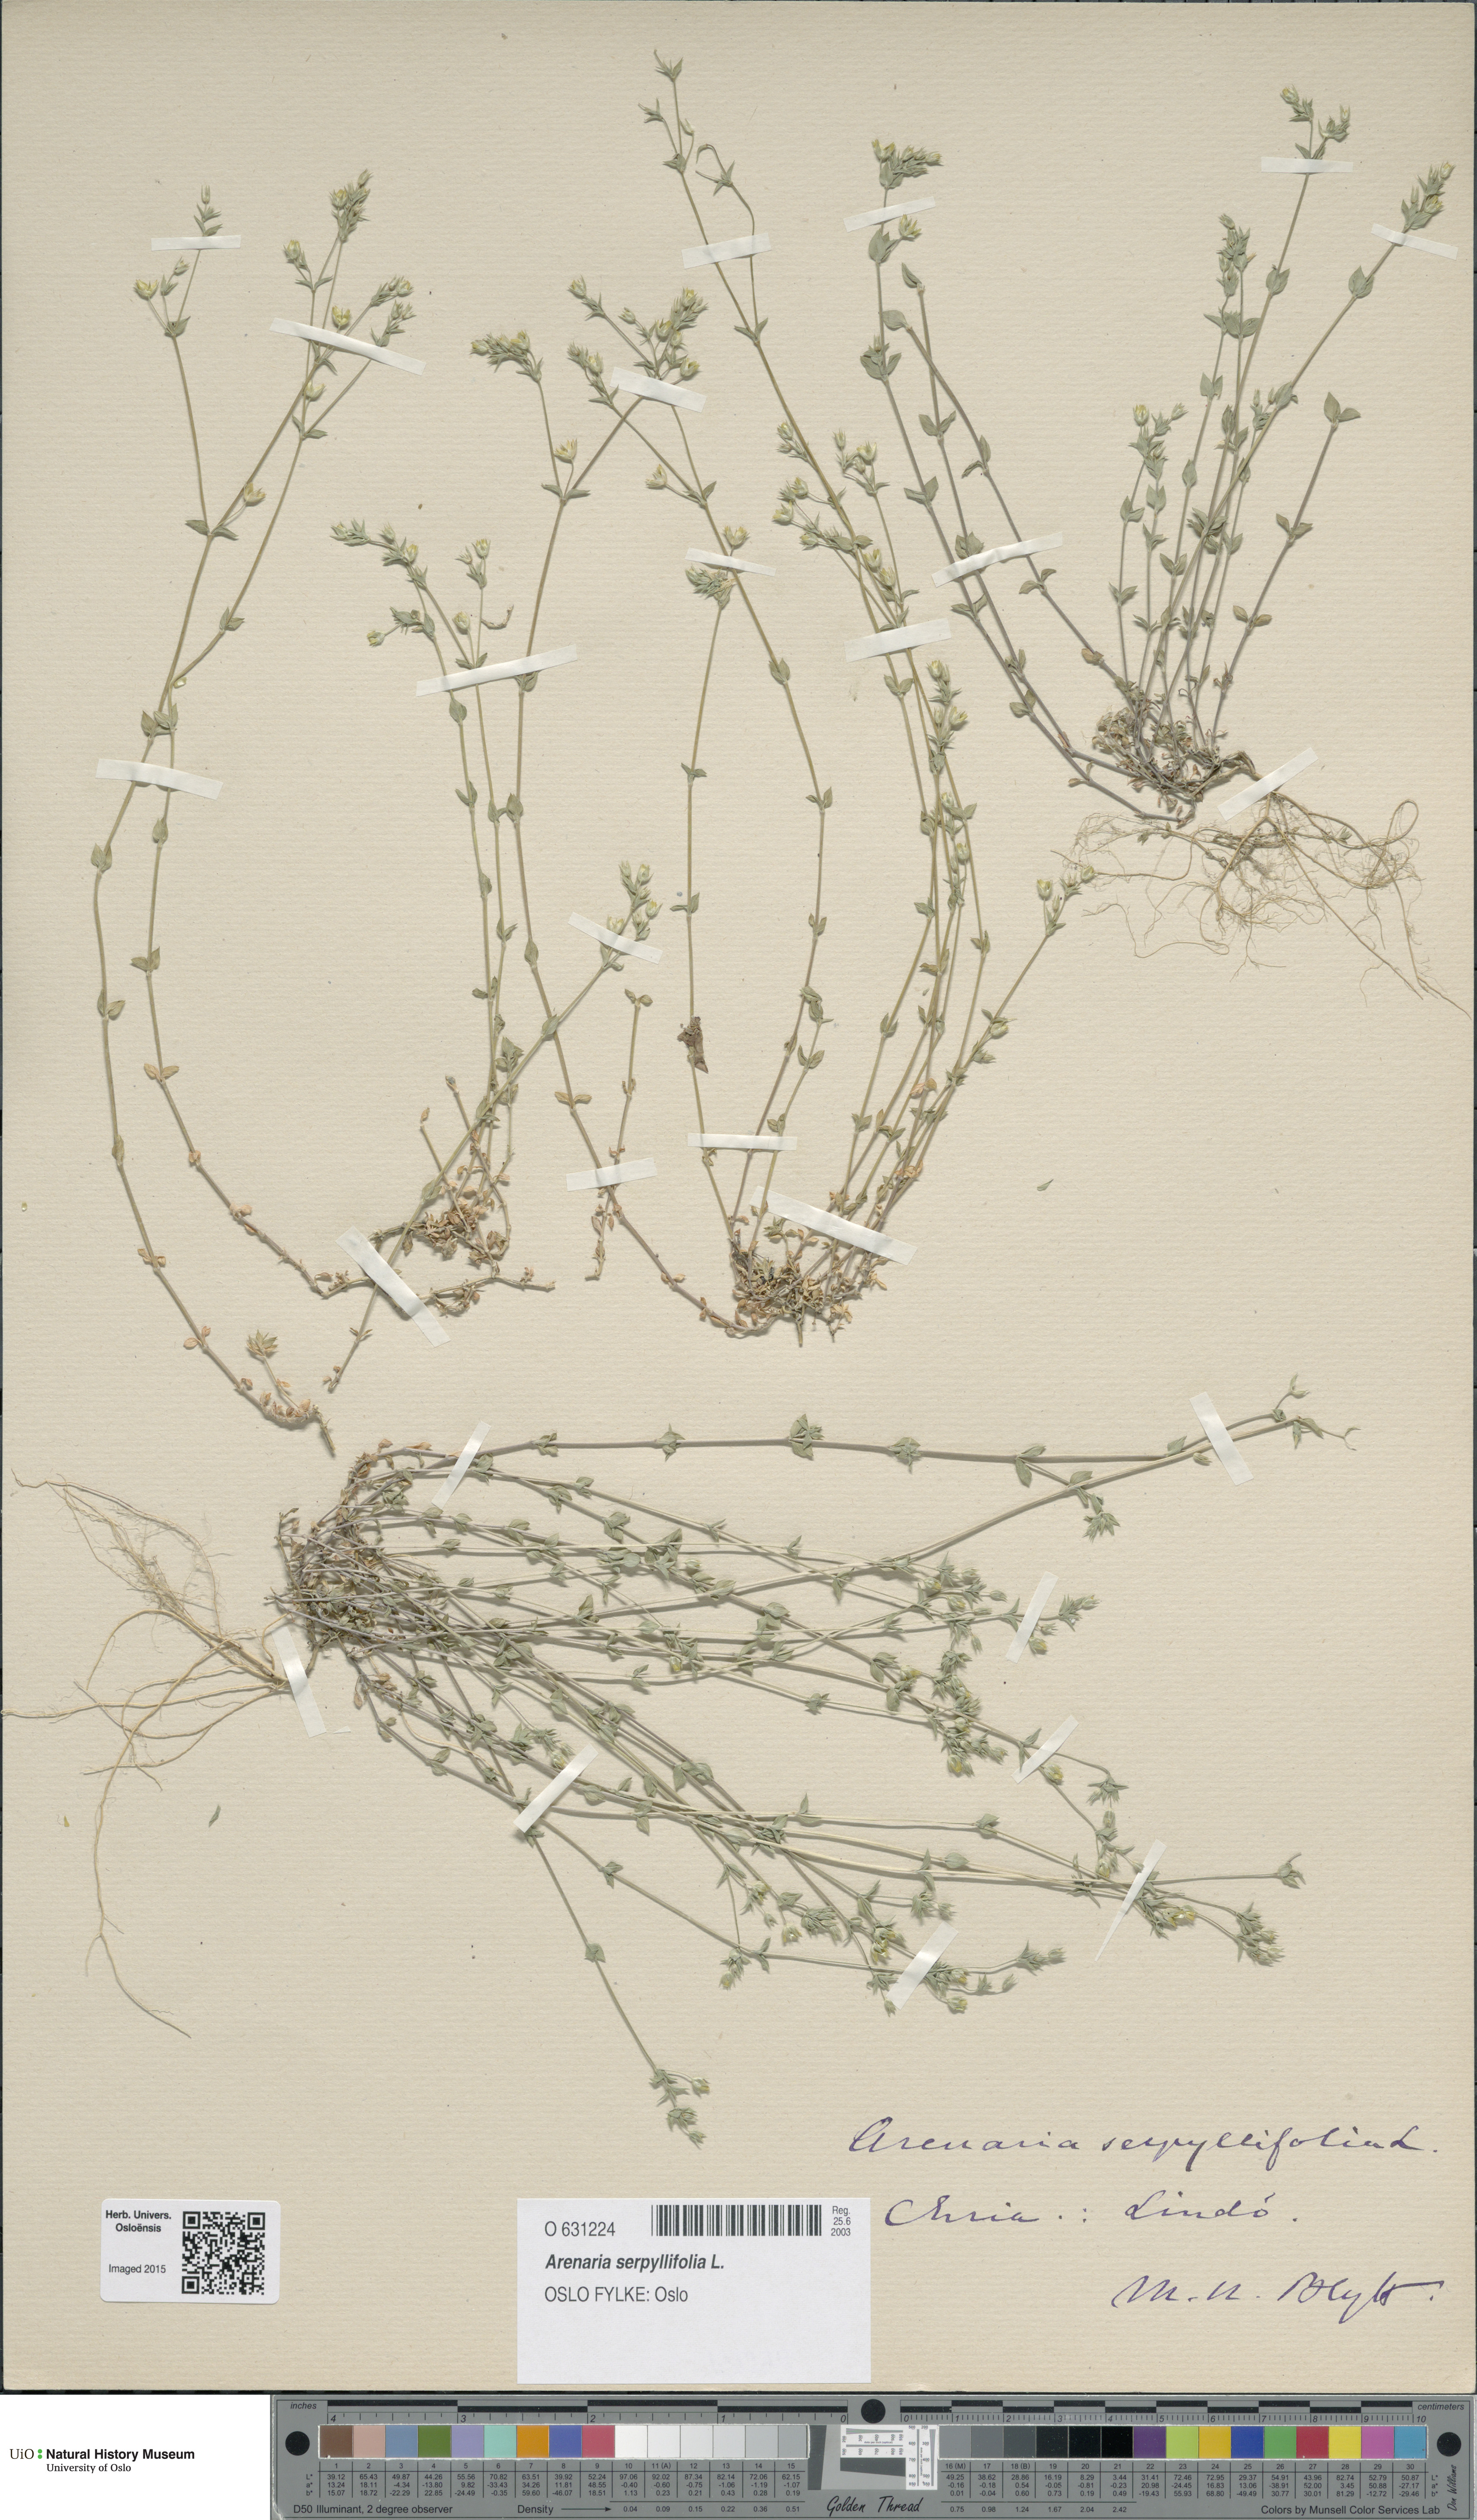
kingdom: Plantae
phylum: Tracheophyta
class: Magnoliopsida
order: Caryophyllales
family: Caryophyllaceae
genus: Arenaria
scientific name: Arenaria serpyllifolia
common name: Thyme-leaved sandwort
